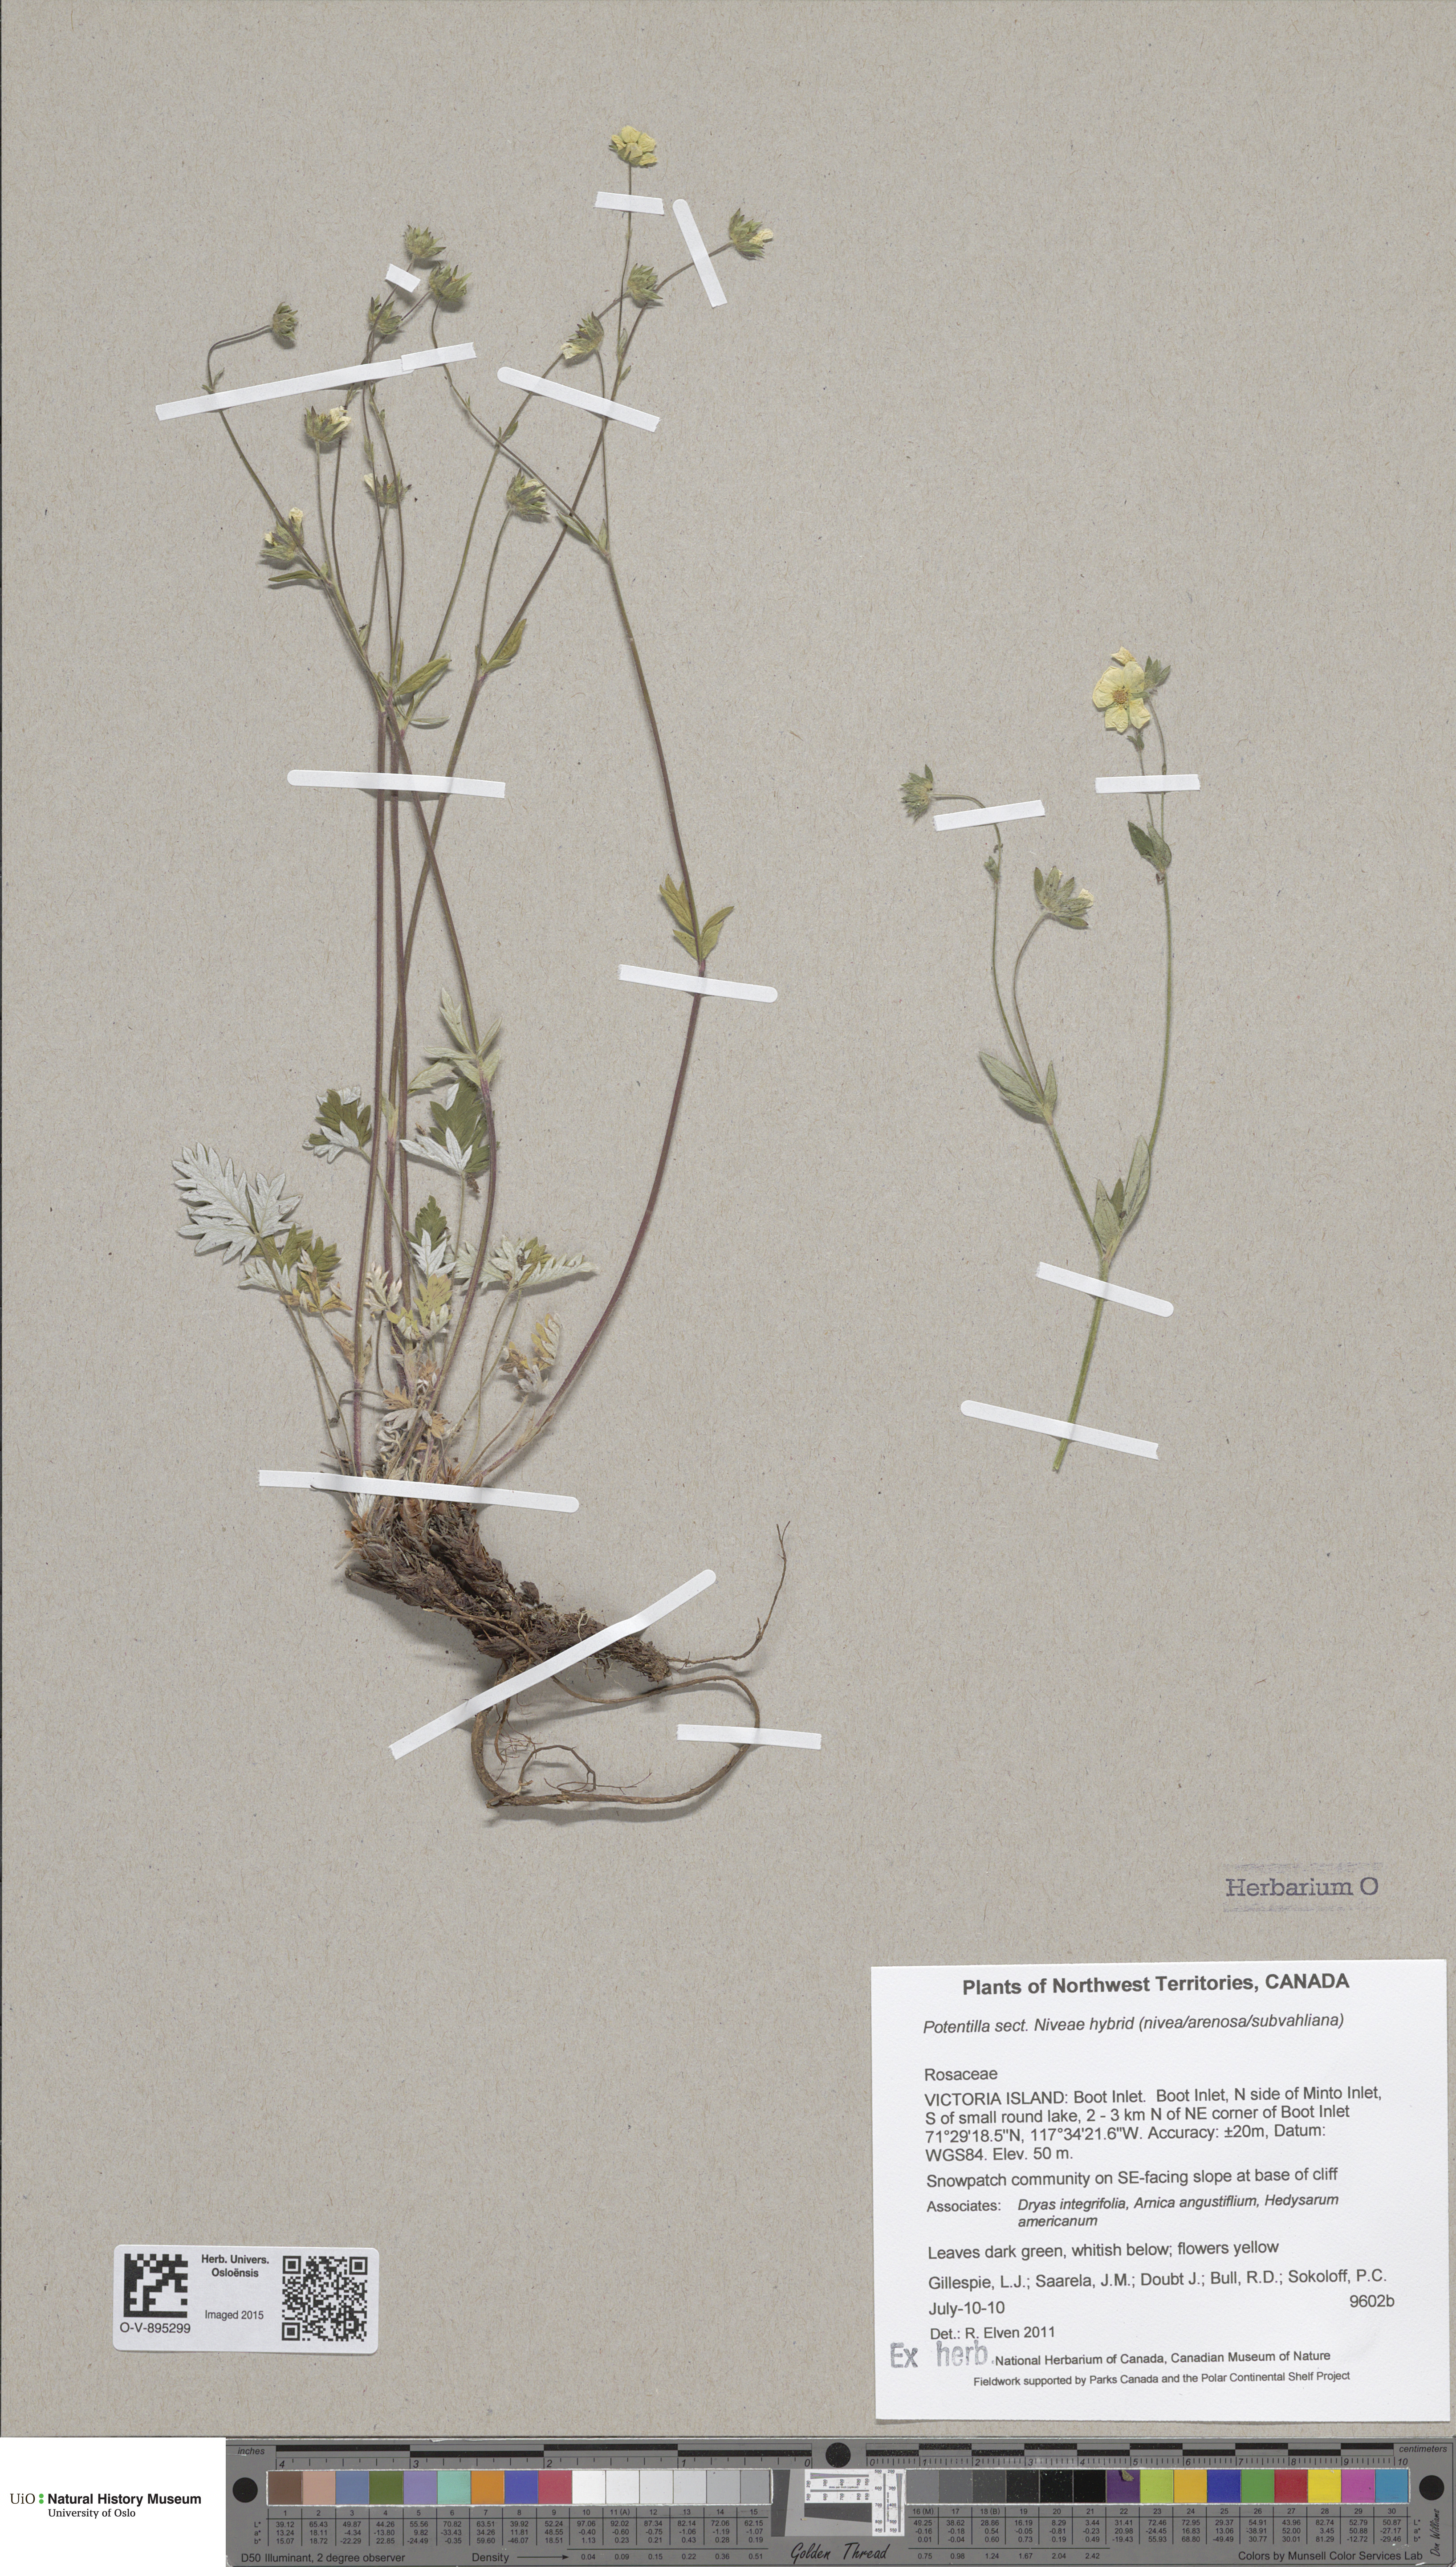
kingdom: Plantae
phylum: Tracheophyta
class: Magnoliopsida
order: Rosales
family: Rosaceae
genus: Potentilla
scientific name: Potentilla
